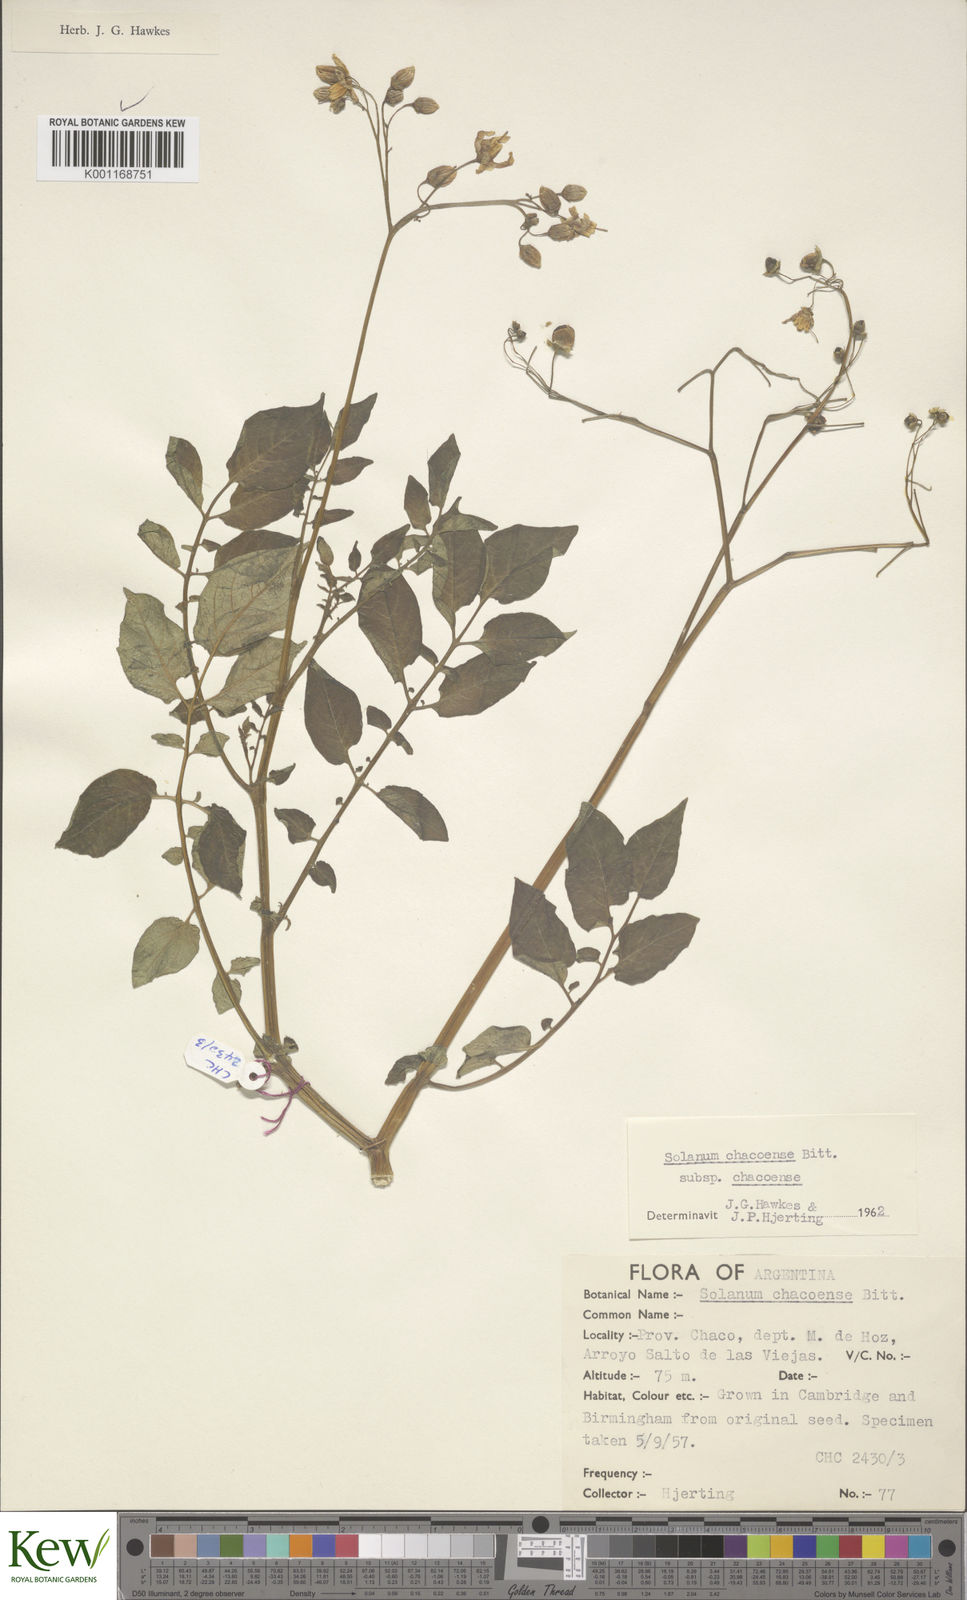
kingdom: Plantae
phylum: Tracheophyta
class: Magnoliopsida
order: Solanales
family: Solanaceae
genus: Solanum
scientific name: Solanum chacoense
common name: Chaco potato
